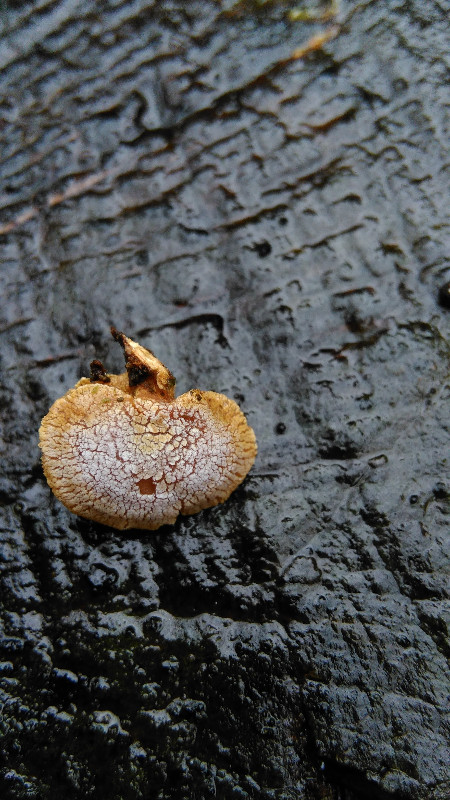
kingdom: Fungi
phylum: Basidiomycota
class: Agaricomycetes
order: Agaricales
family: Mycenaceae
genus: Panellus
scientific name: Panellus stipticus
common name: kliddet epaulethat
